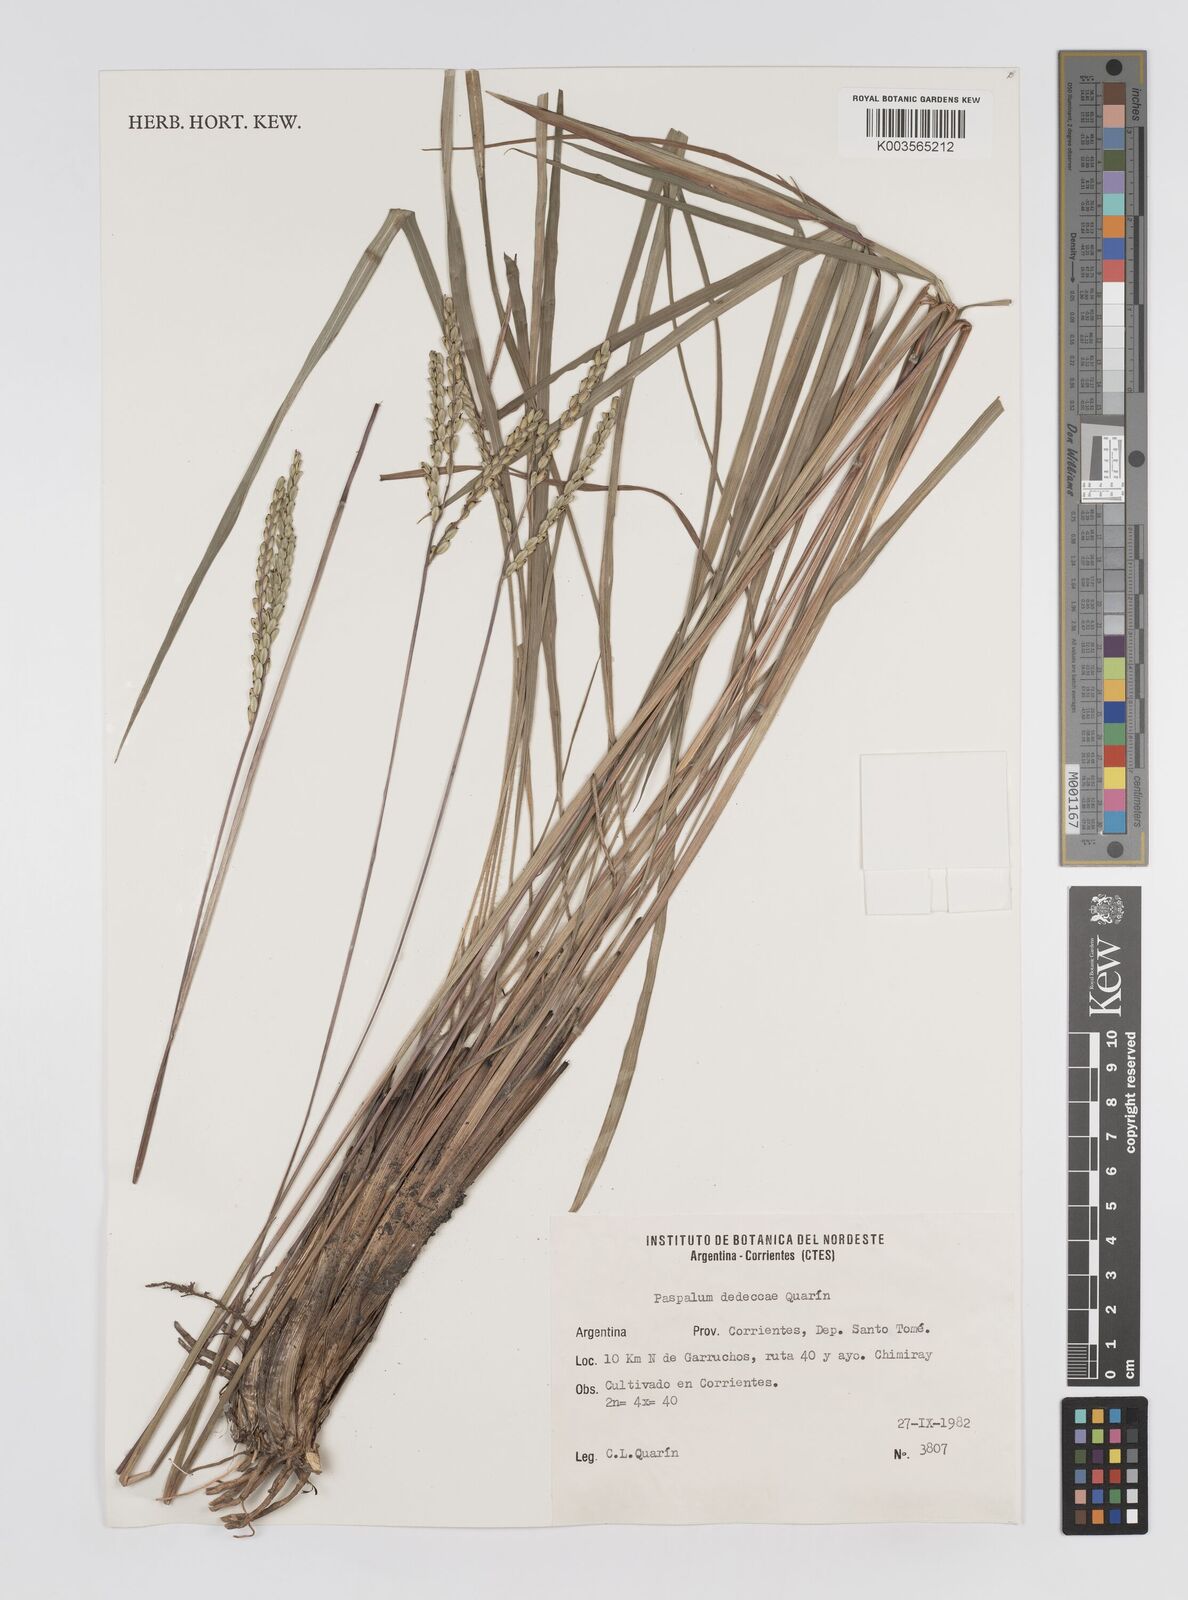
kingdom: Plantae
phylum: Tracheophyta
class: Liliopsida
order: Poales
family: Poaceae
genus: Paspalum
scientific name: Paspalum dedeccae
